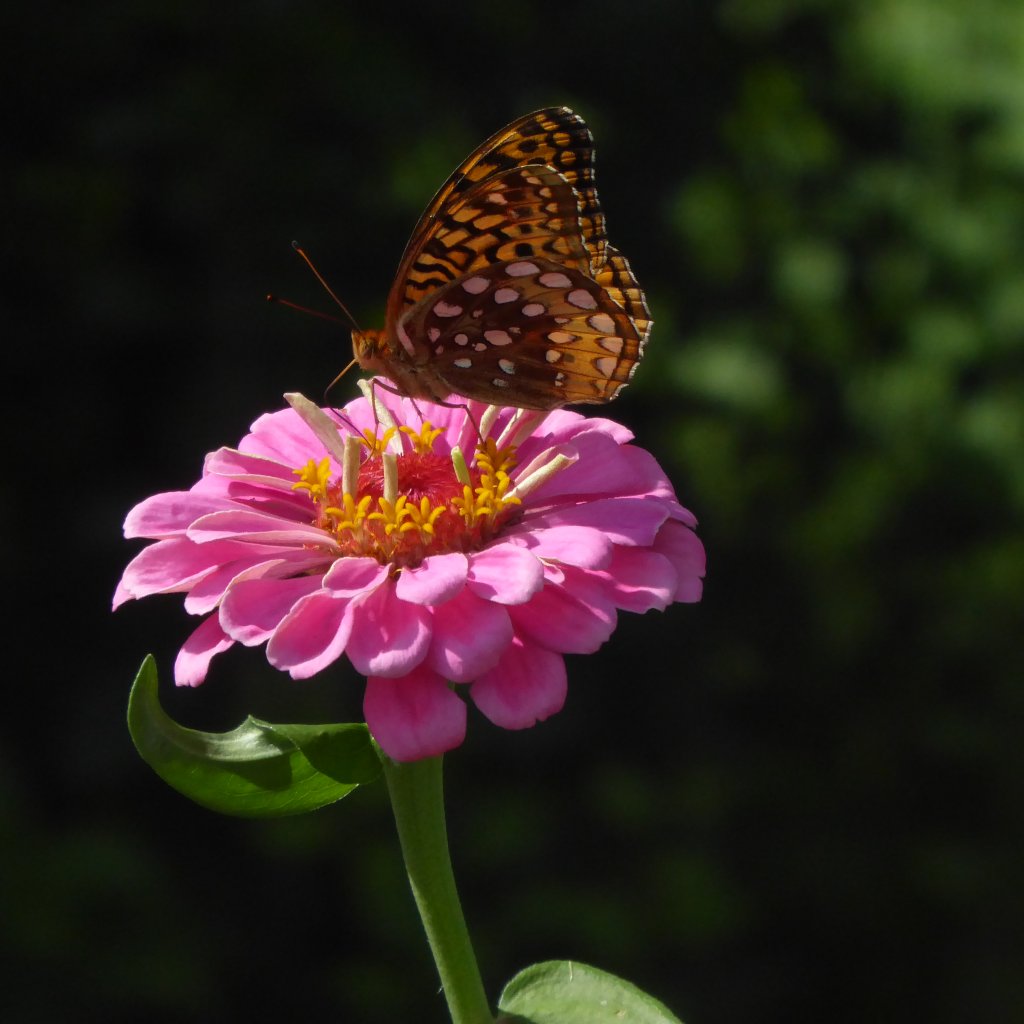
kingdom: Animalia
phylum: Arthropoda
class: Insecta
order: Lepidoptera
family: Nymphalidae
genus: Speyeria
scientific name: Speyeria cybele
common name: Great Spangled Fritillary
